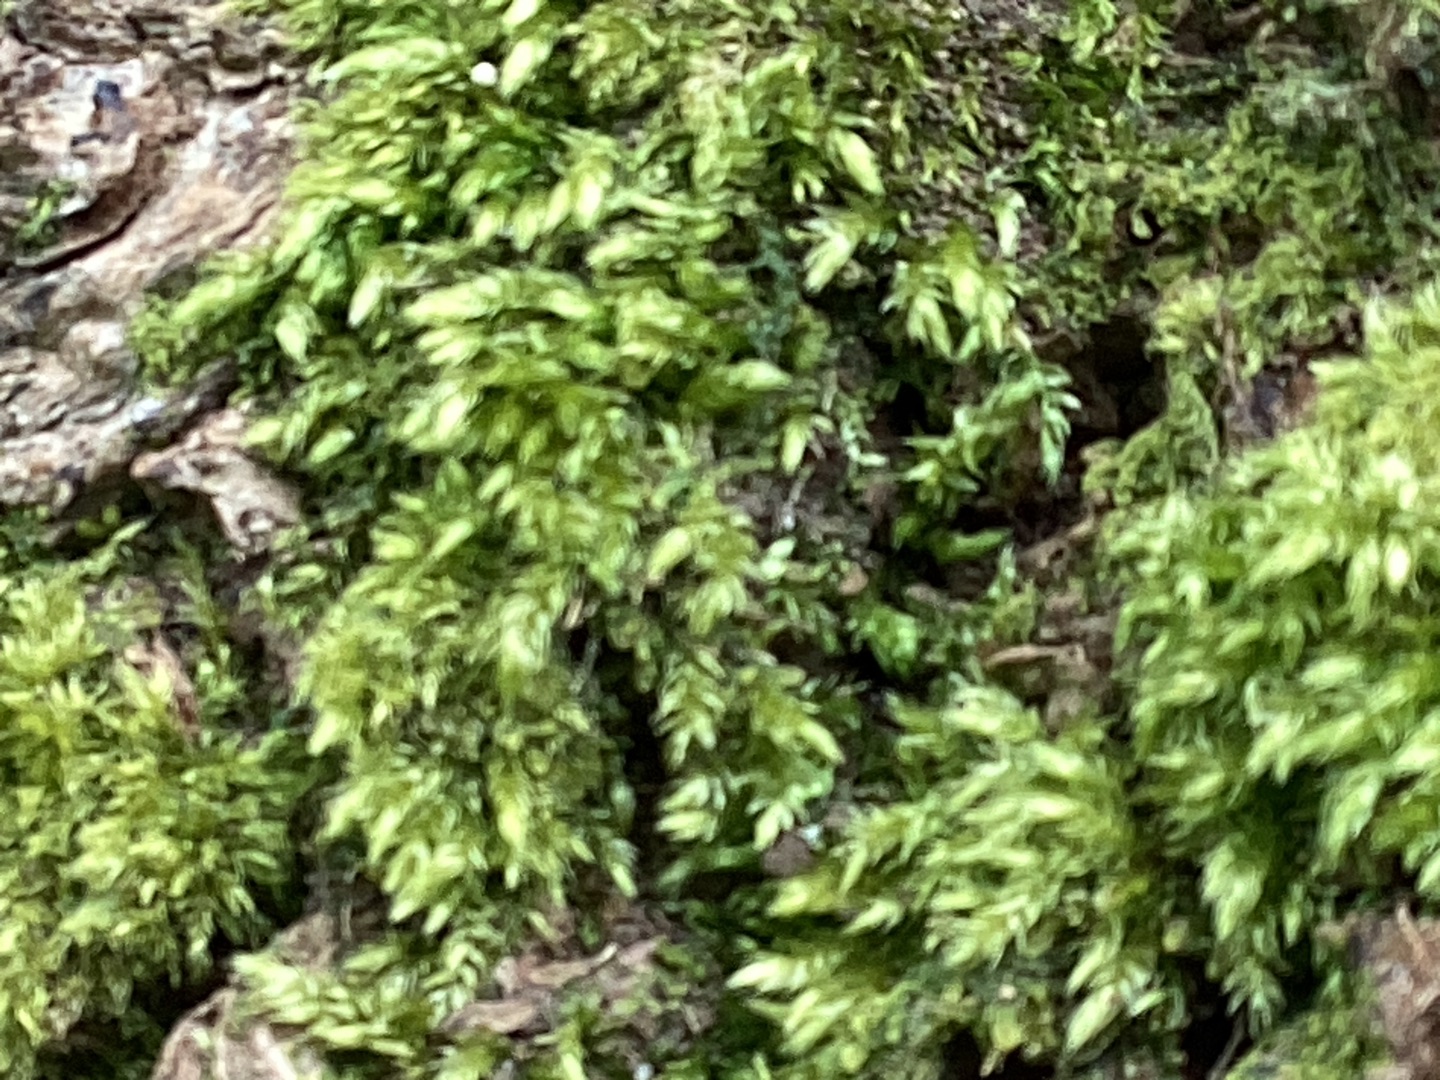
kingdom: Plantae
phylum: Bryophyta
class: Bryopsida
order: Hypnales
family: Brachytheciaceae
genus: Brachythecium
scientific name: Brachythecium rutabulum
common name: Almindelig kortkapsel
